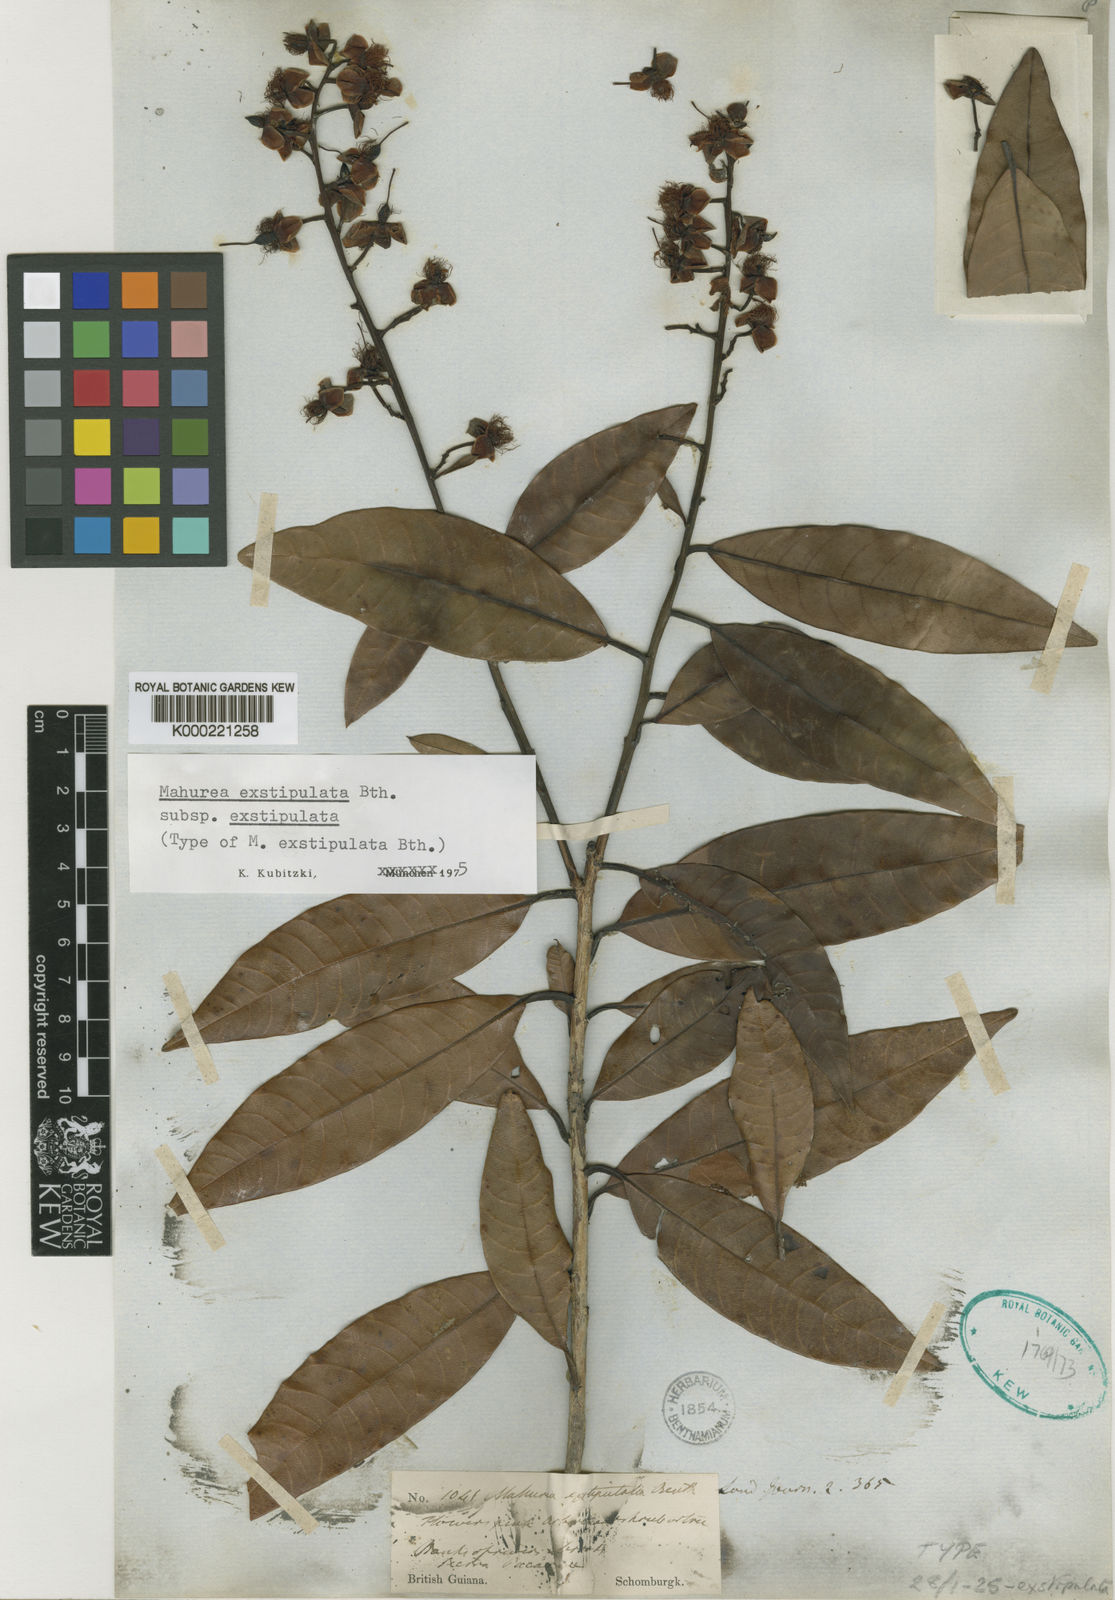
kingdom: Plantae
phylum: Tracheophyta
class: Magnoliopsida
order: Malpighiales
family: Calophyllaceae
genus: Mahurea
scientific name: Mahurea exstipulata
